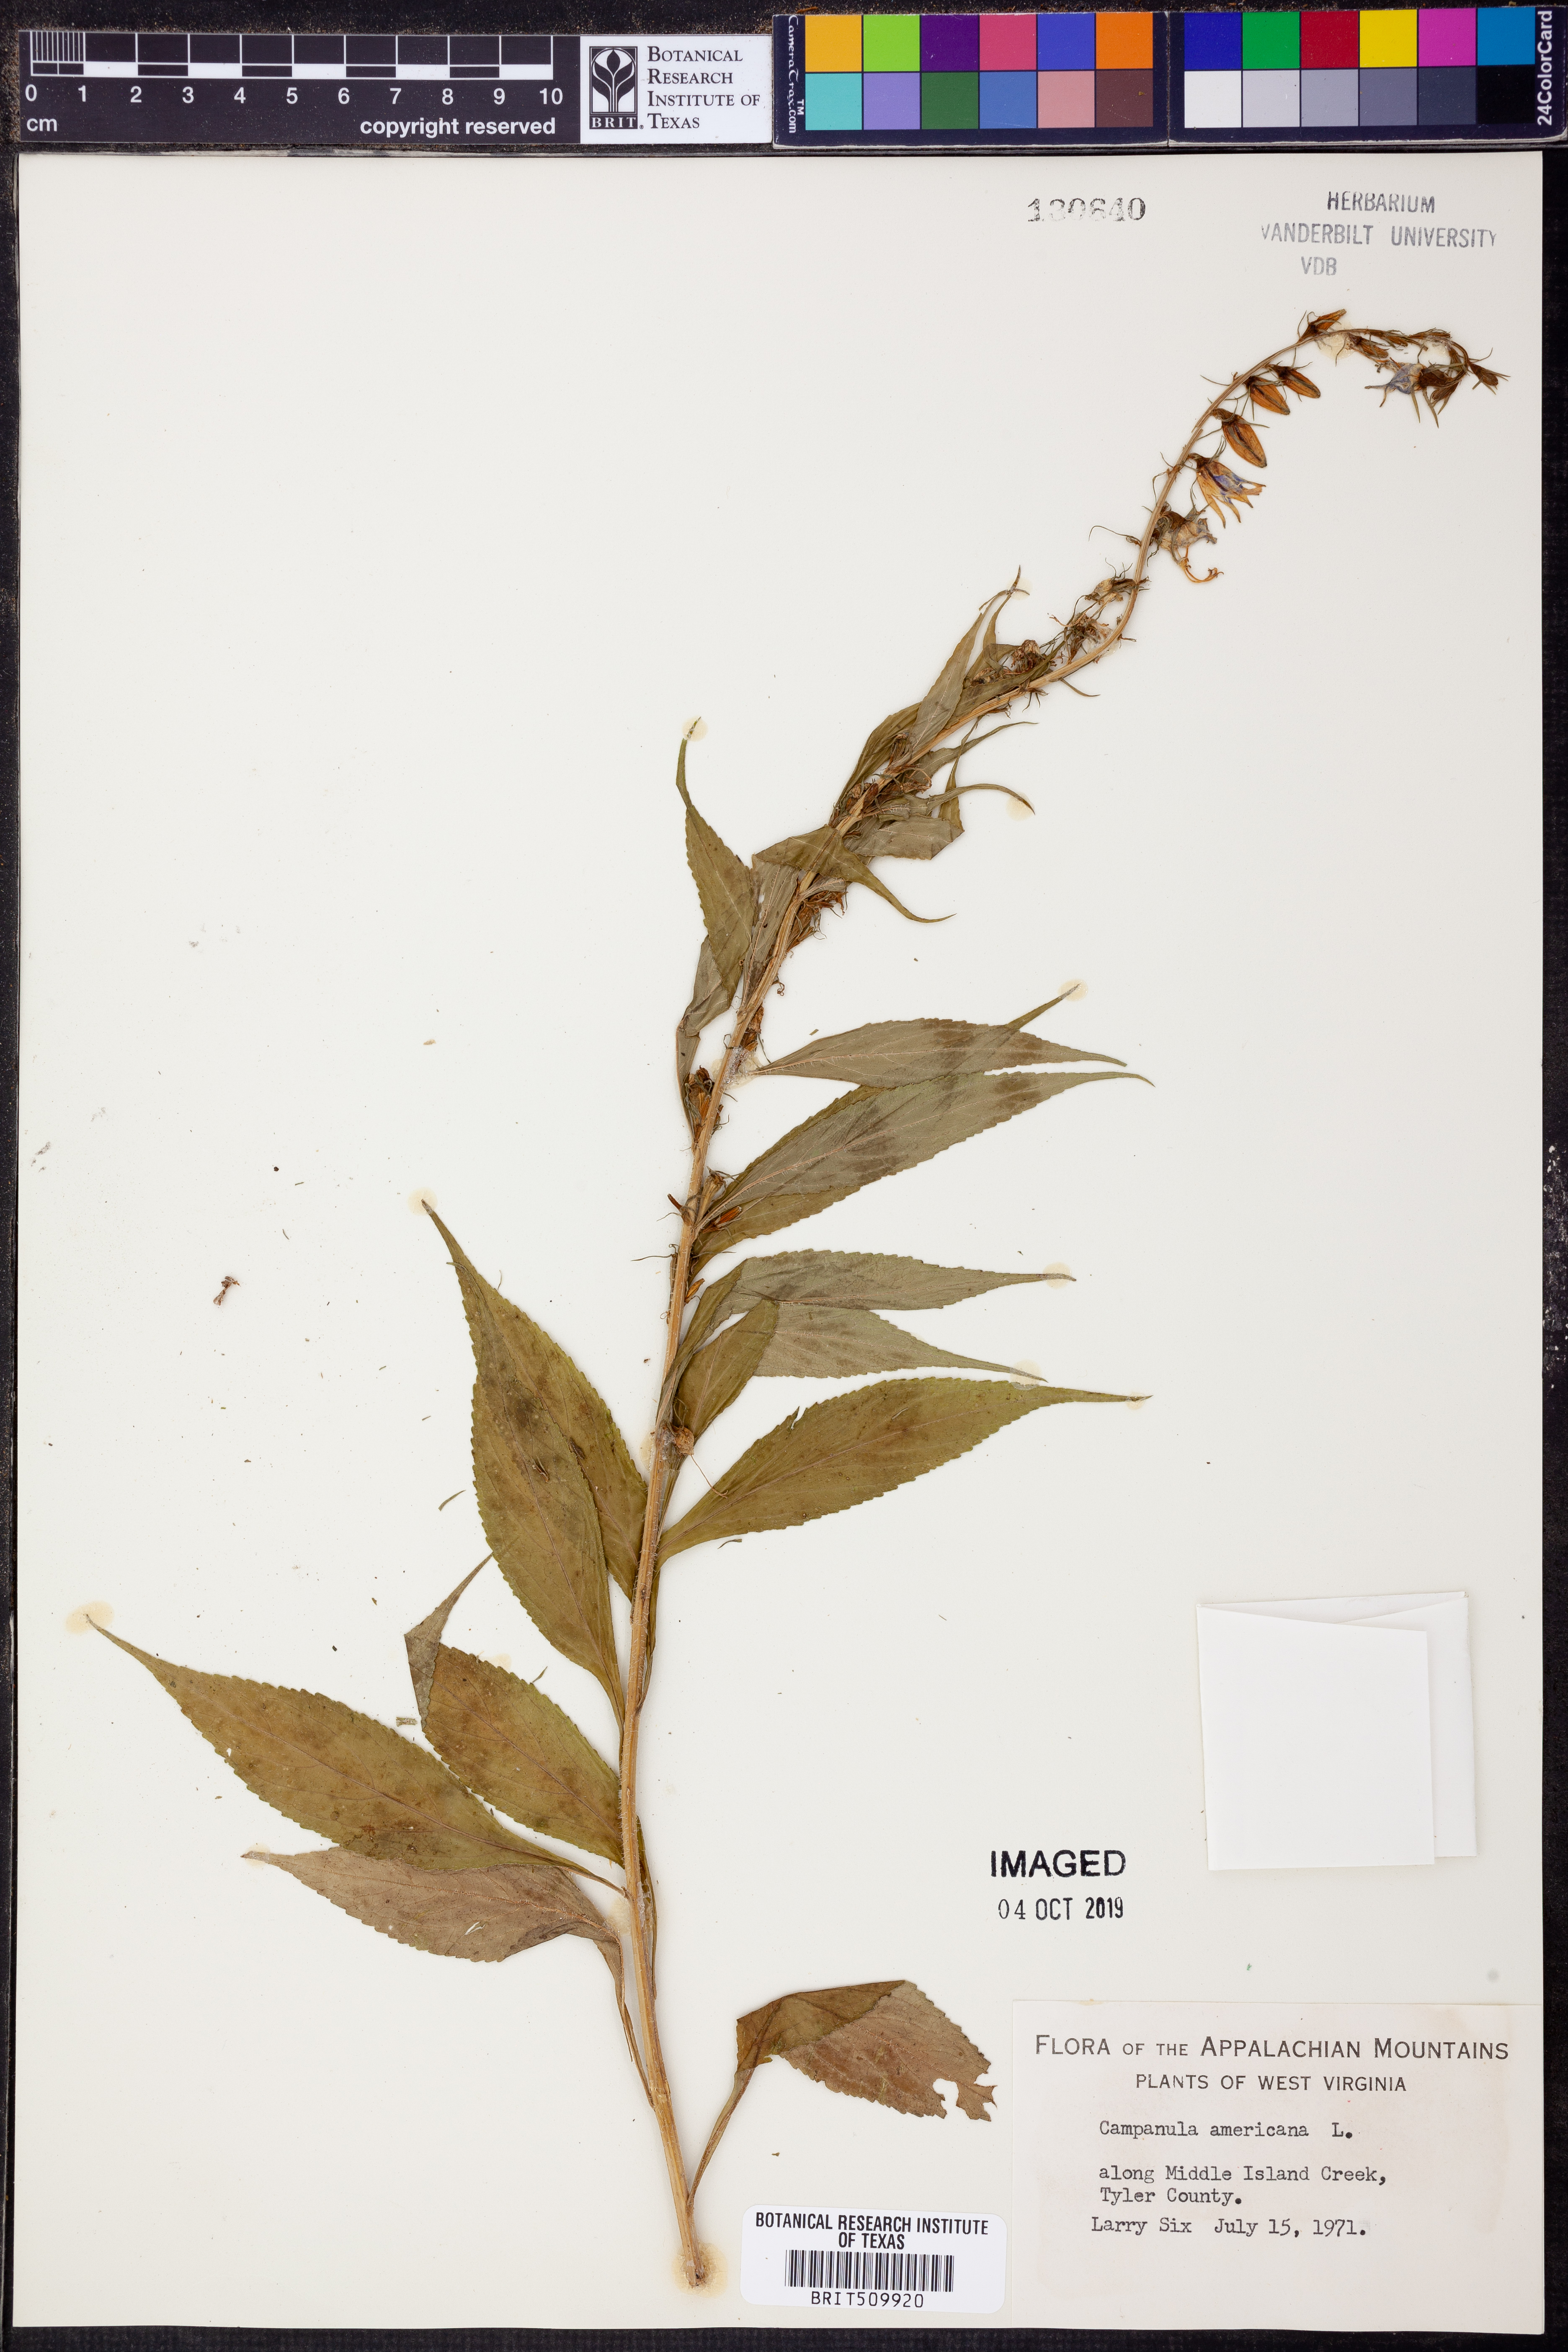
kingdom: Plantae
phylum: Tracheophyta
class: Magnoliopsida
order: Asterales
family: Campanulaceae
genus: Campanula
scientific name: Campanula americana
